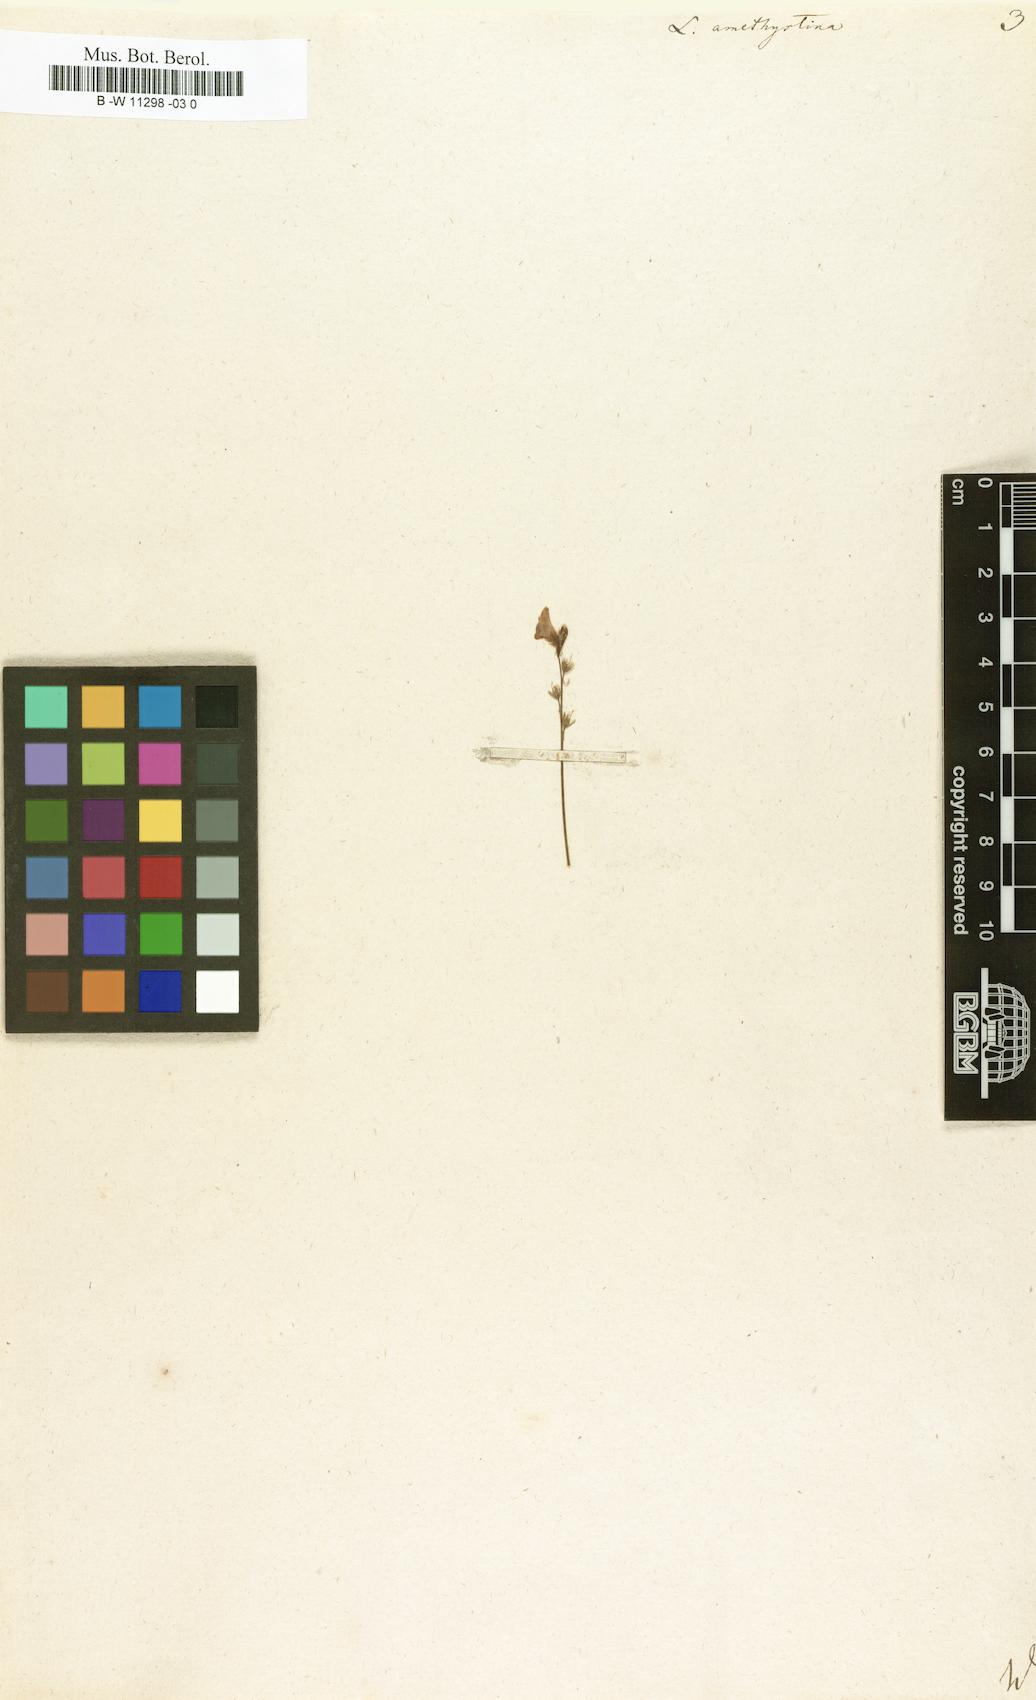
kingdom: Plantae
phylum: Tracheophyta
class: Magnoliopsida
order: Lamiales
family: Plantaginaceae
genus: Linaria
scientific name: Linaria incarnata
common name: Annual toadflax
